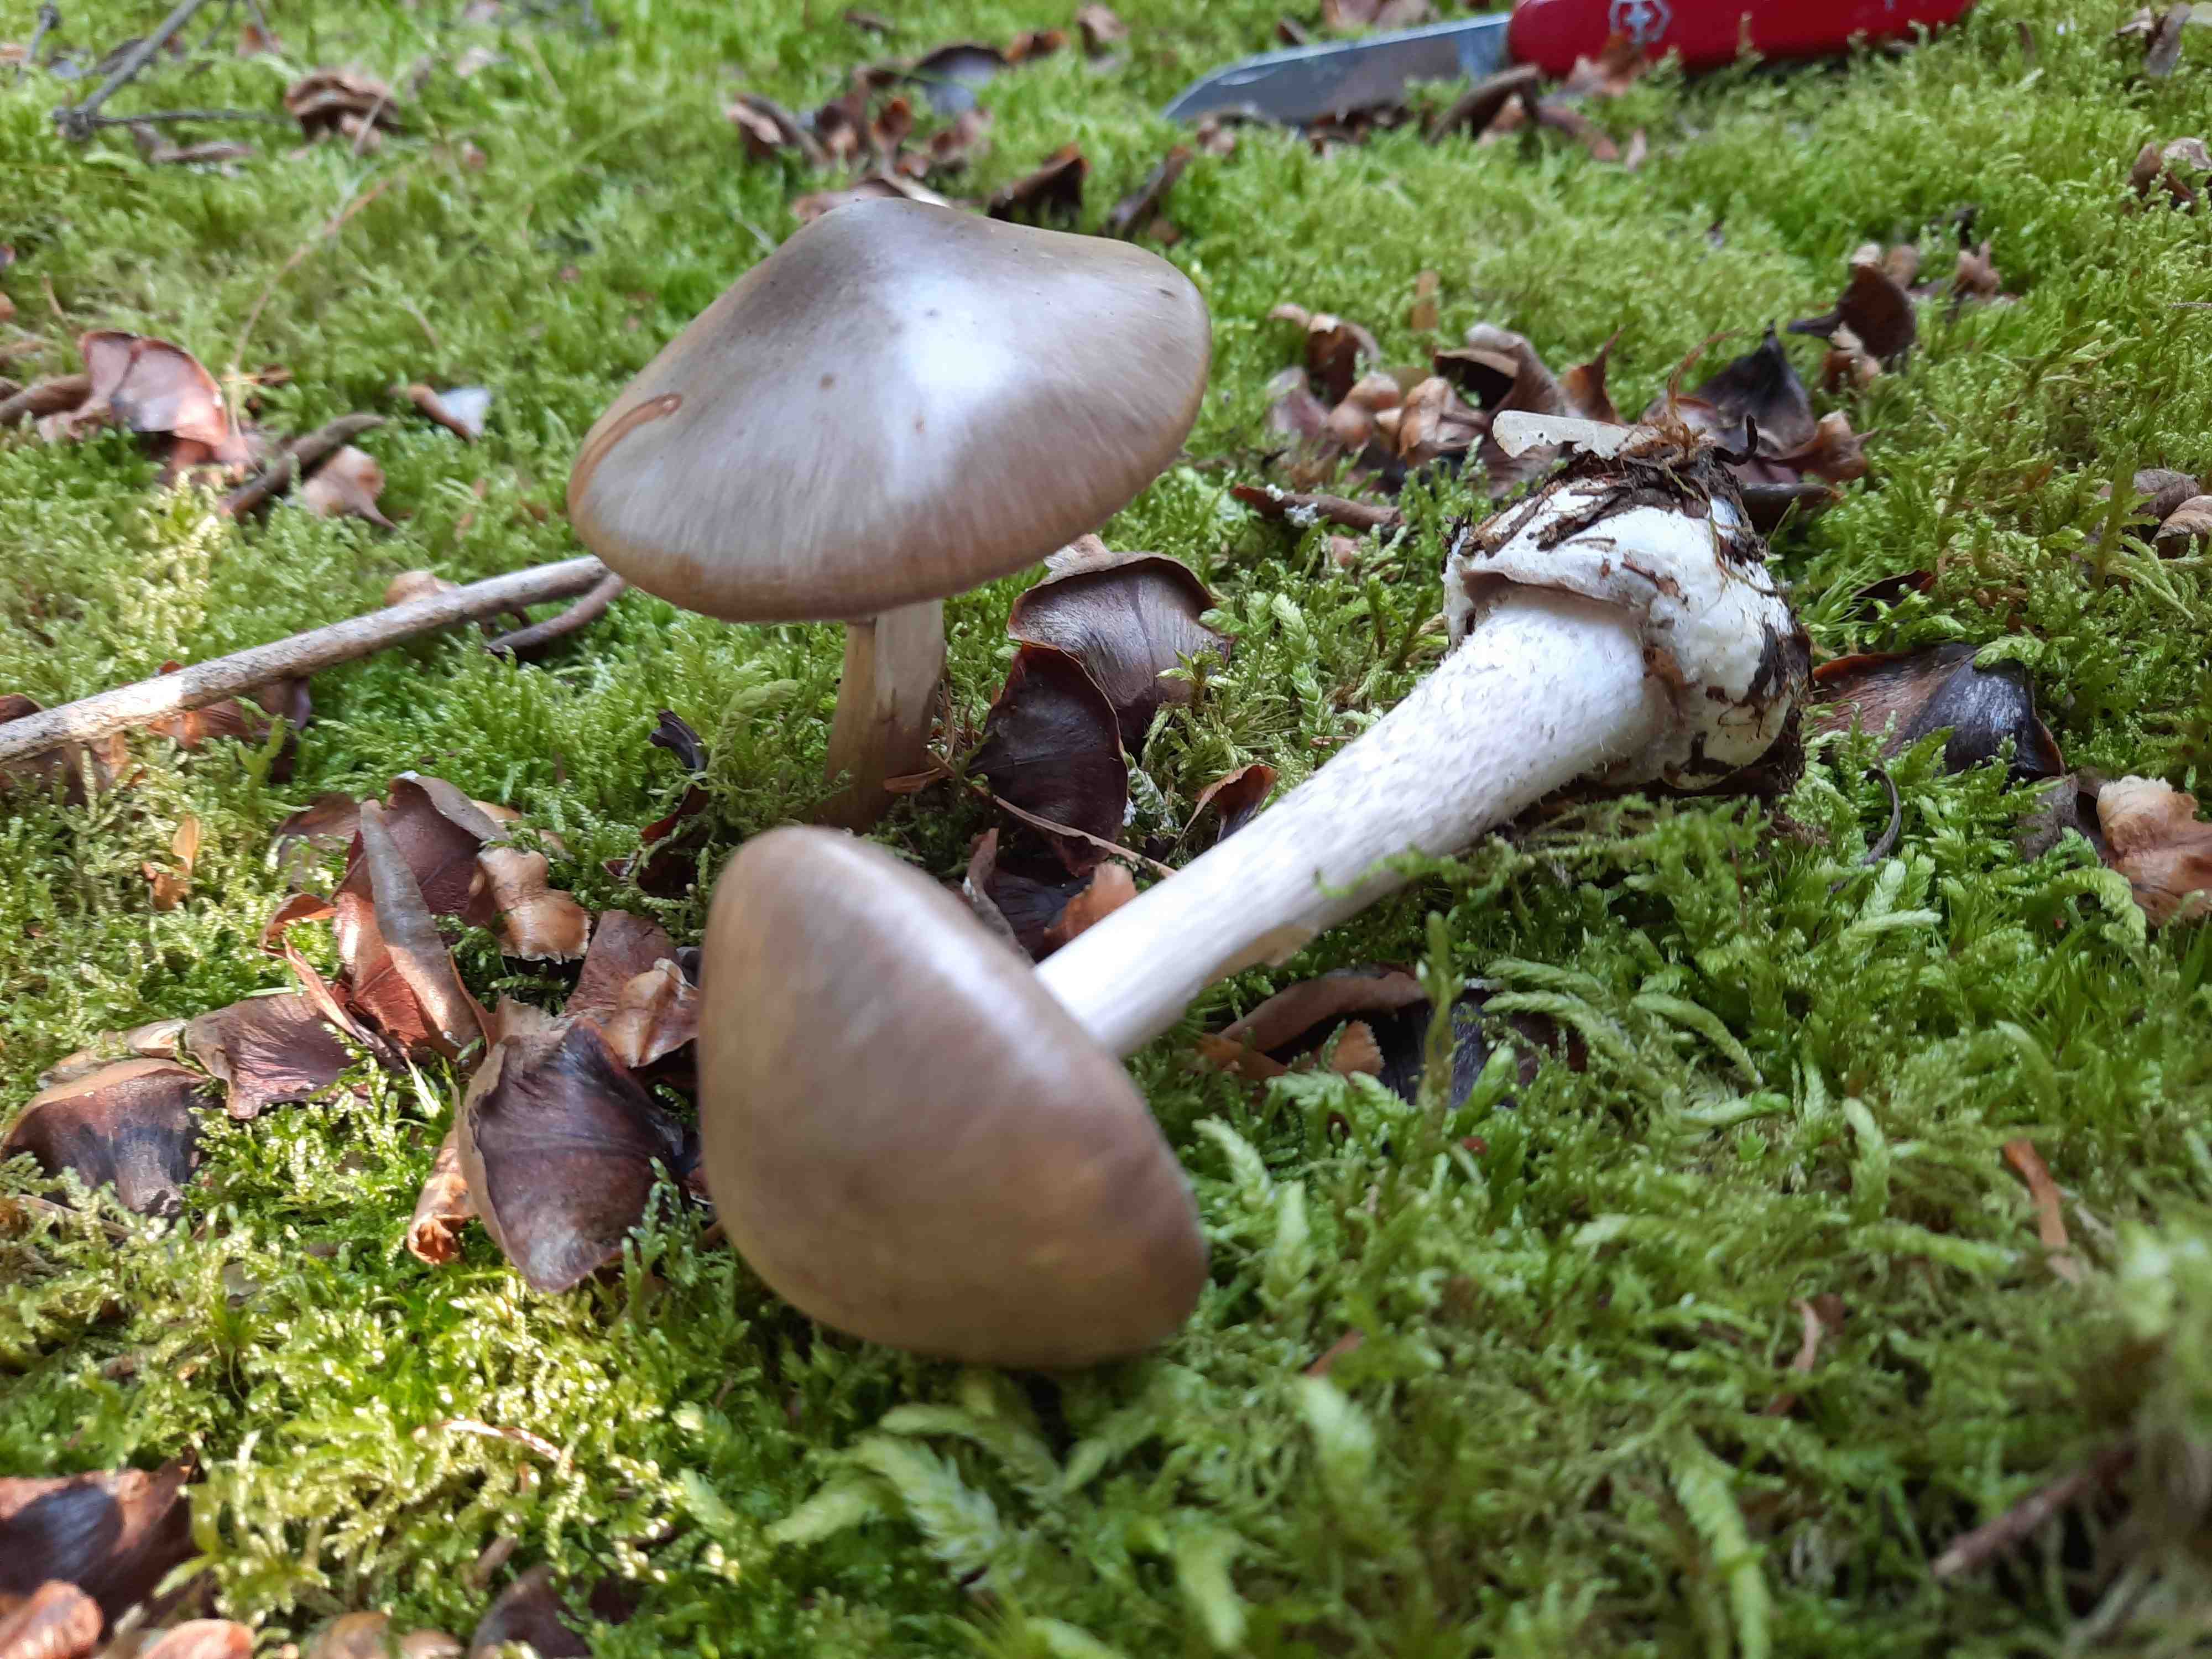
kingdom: Fungi
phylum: Basidiomycota
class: Agaricomycetes
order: Agaricales
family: Amanitaceae
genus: Amanita
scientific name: Amanita porphyria
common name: porfyr-fluesvamp
